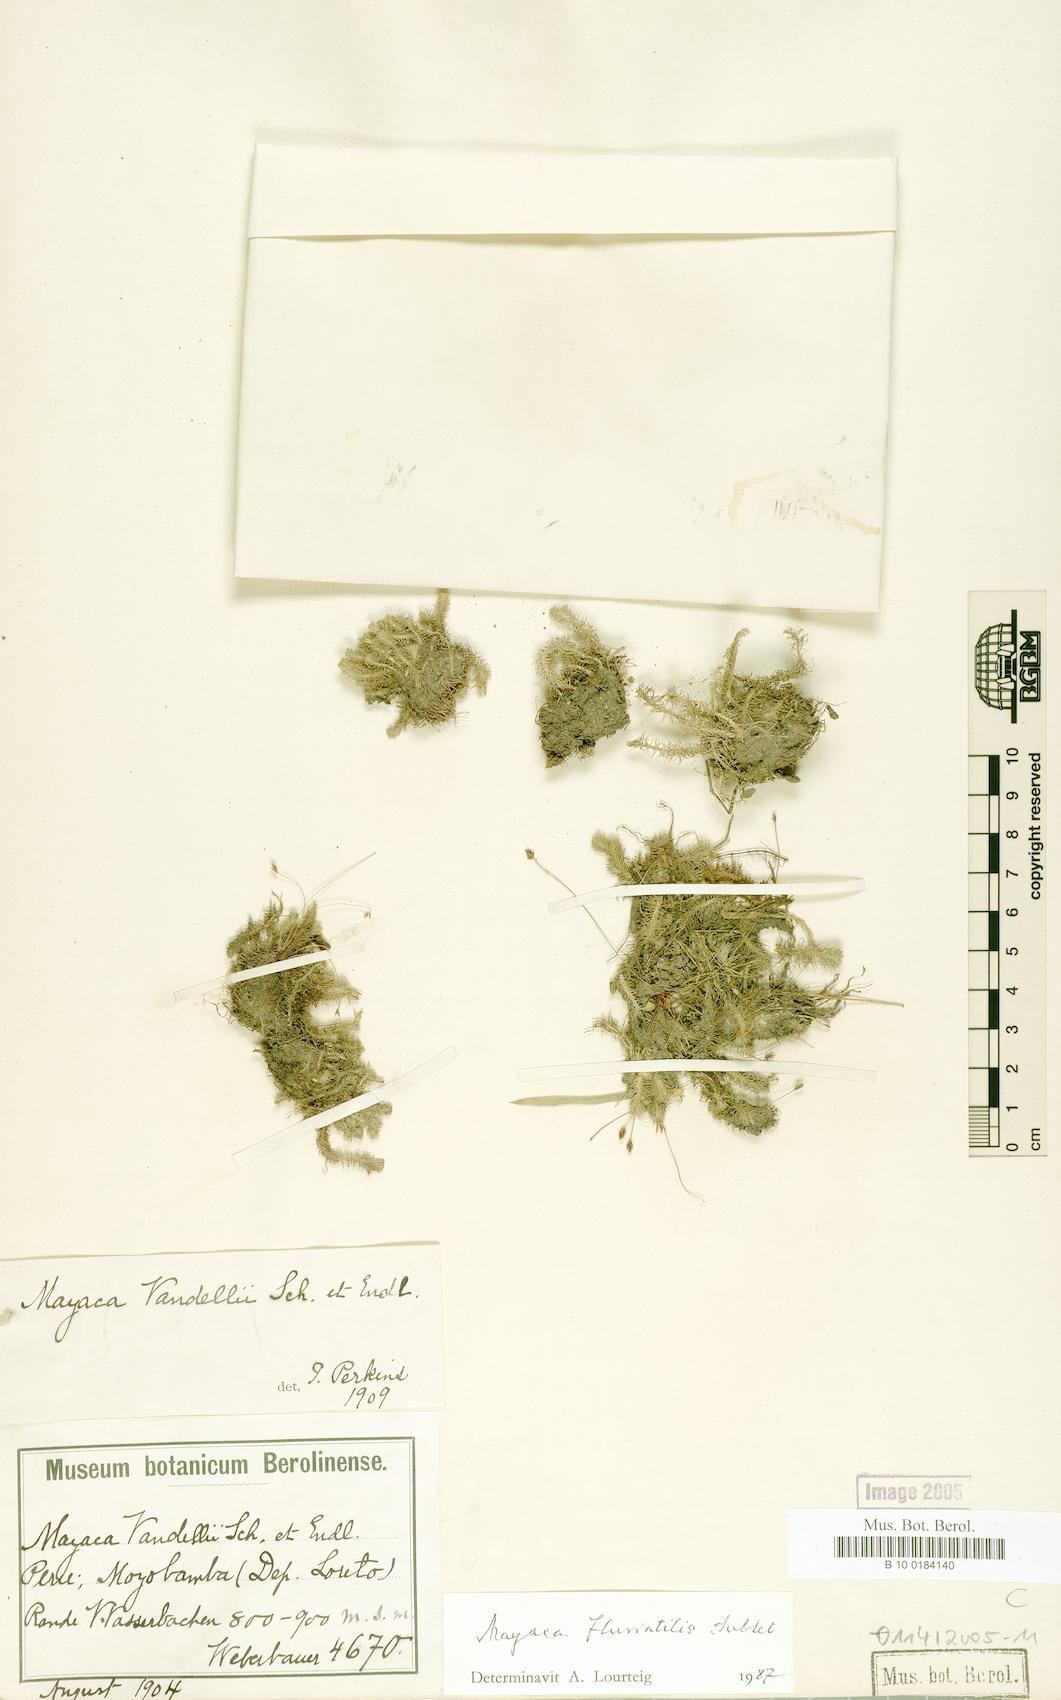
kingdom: Plantae
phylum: Tracheophyta
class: Liliopsida
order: Poales
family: Mayacaceae
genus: Mayaca
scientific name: Mayaca fluviatilis
